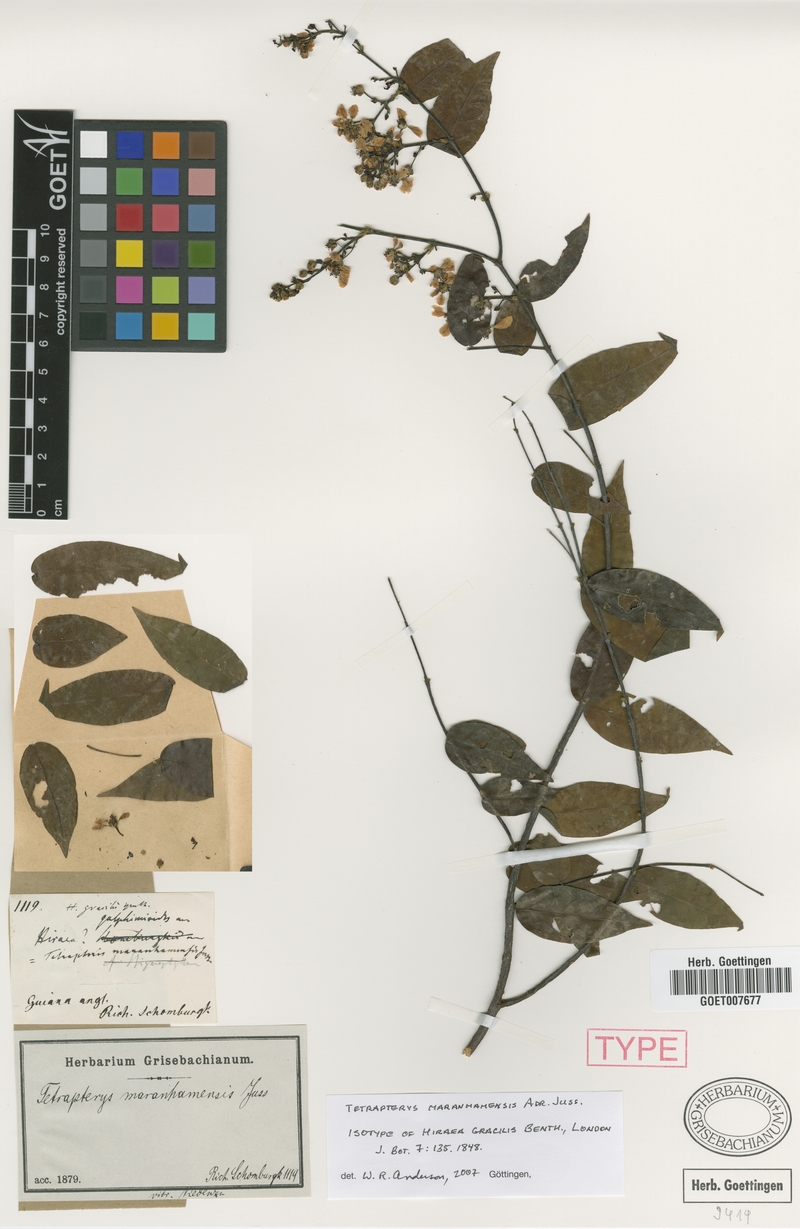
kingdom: Plantae
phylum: Tracheophyta
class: Magnoliopsida
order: Malpighiales
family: Malpighiaceae
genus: Glicophyllum
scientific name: Glicophyllum maranhamense
